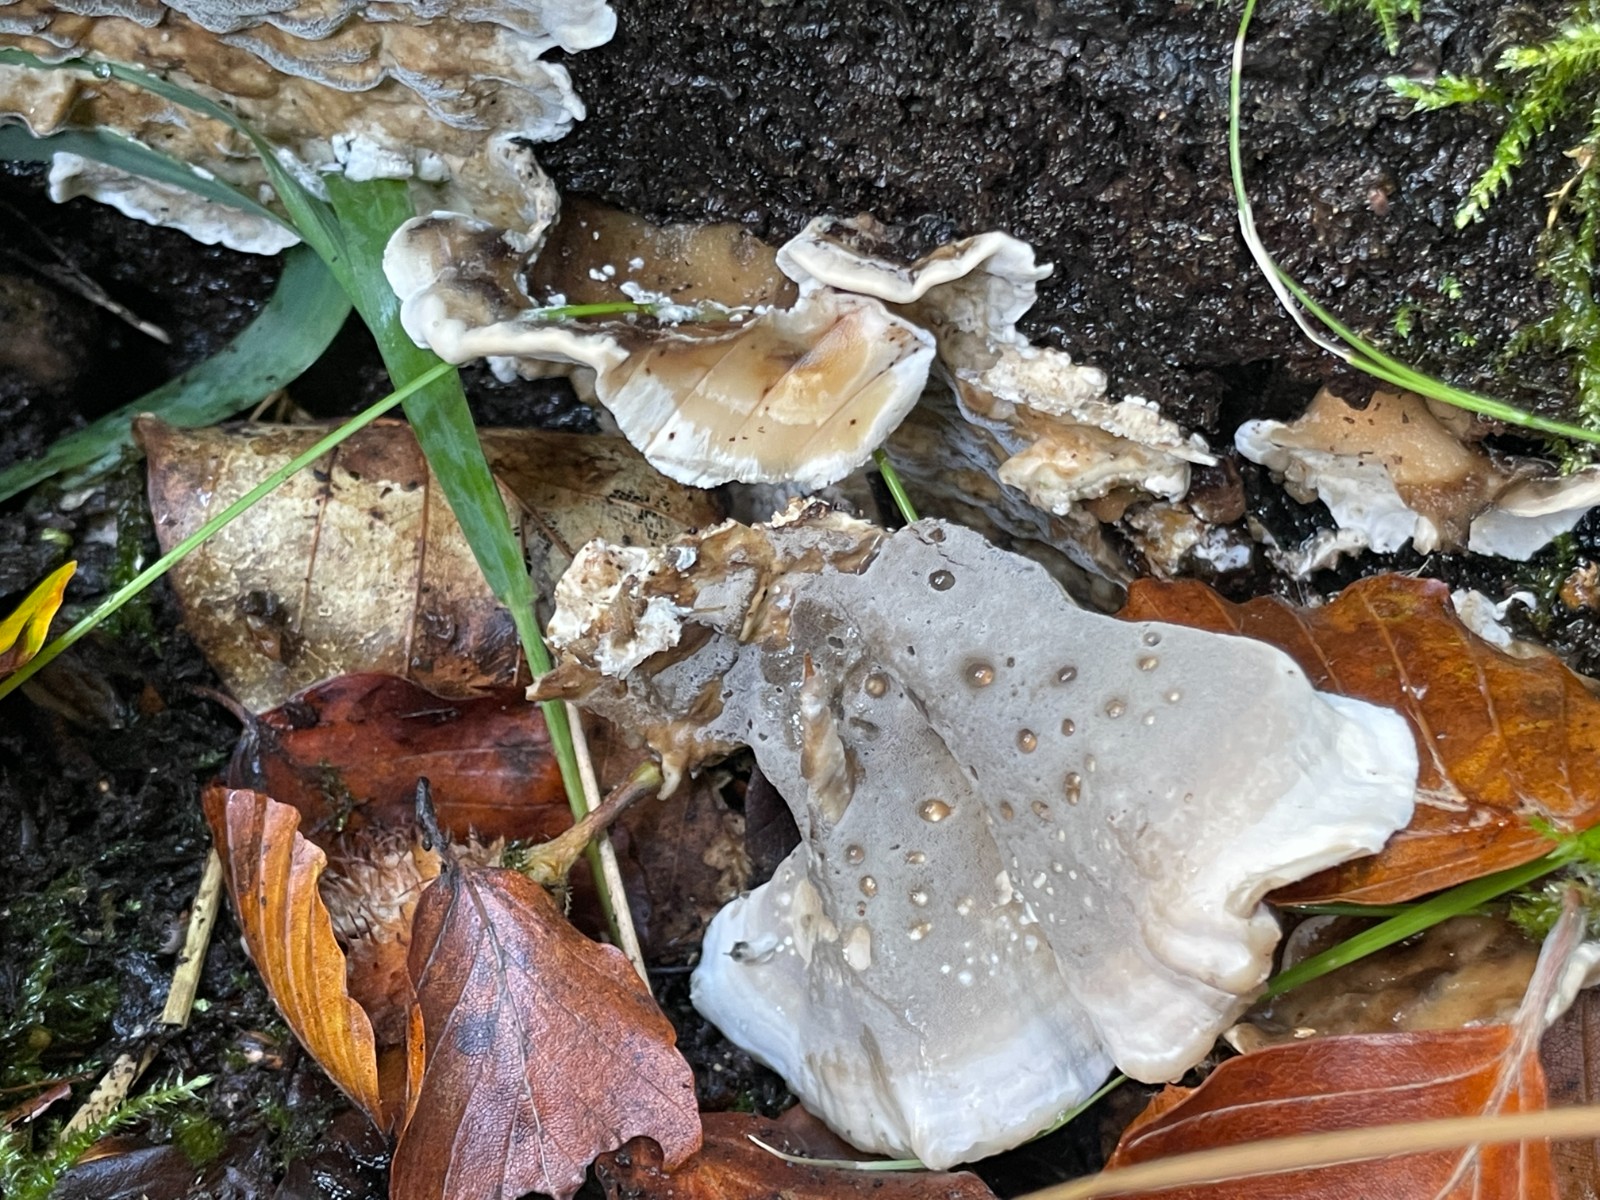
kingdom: Fungi
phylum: Basidiomycota
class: Agaricomycetes
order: Polyporales
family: Phanerochaetaceae
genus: Bjerkandera
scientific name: Bjerkandera adusta
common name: sveden sodporesvamp
